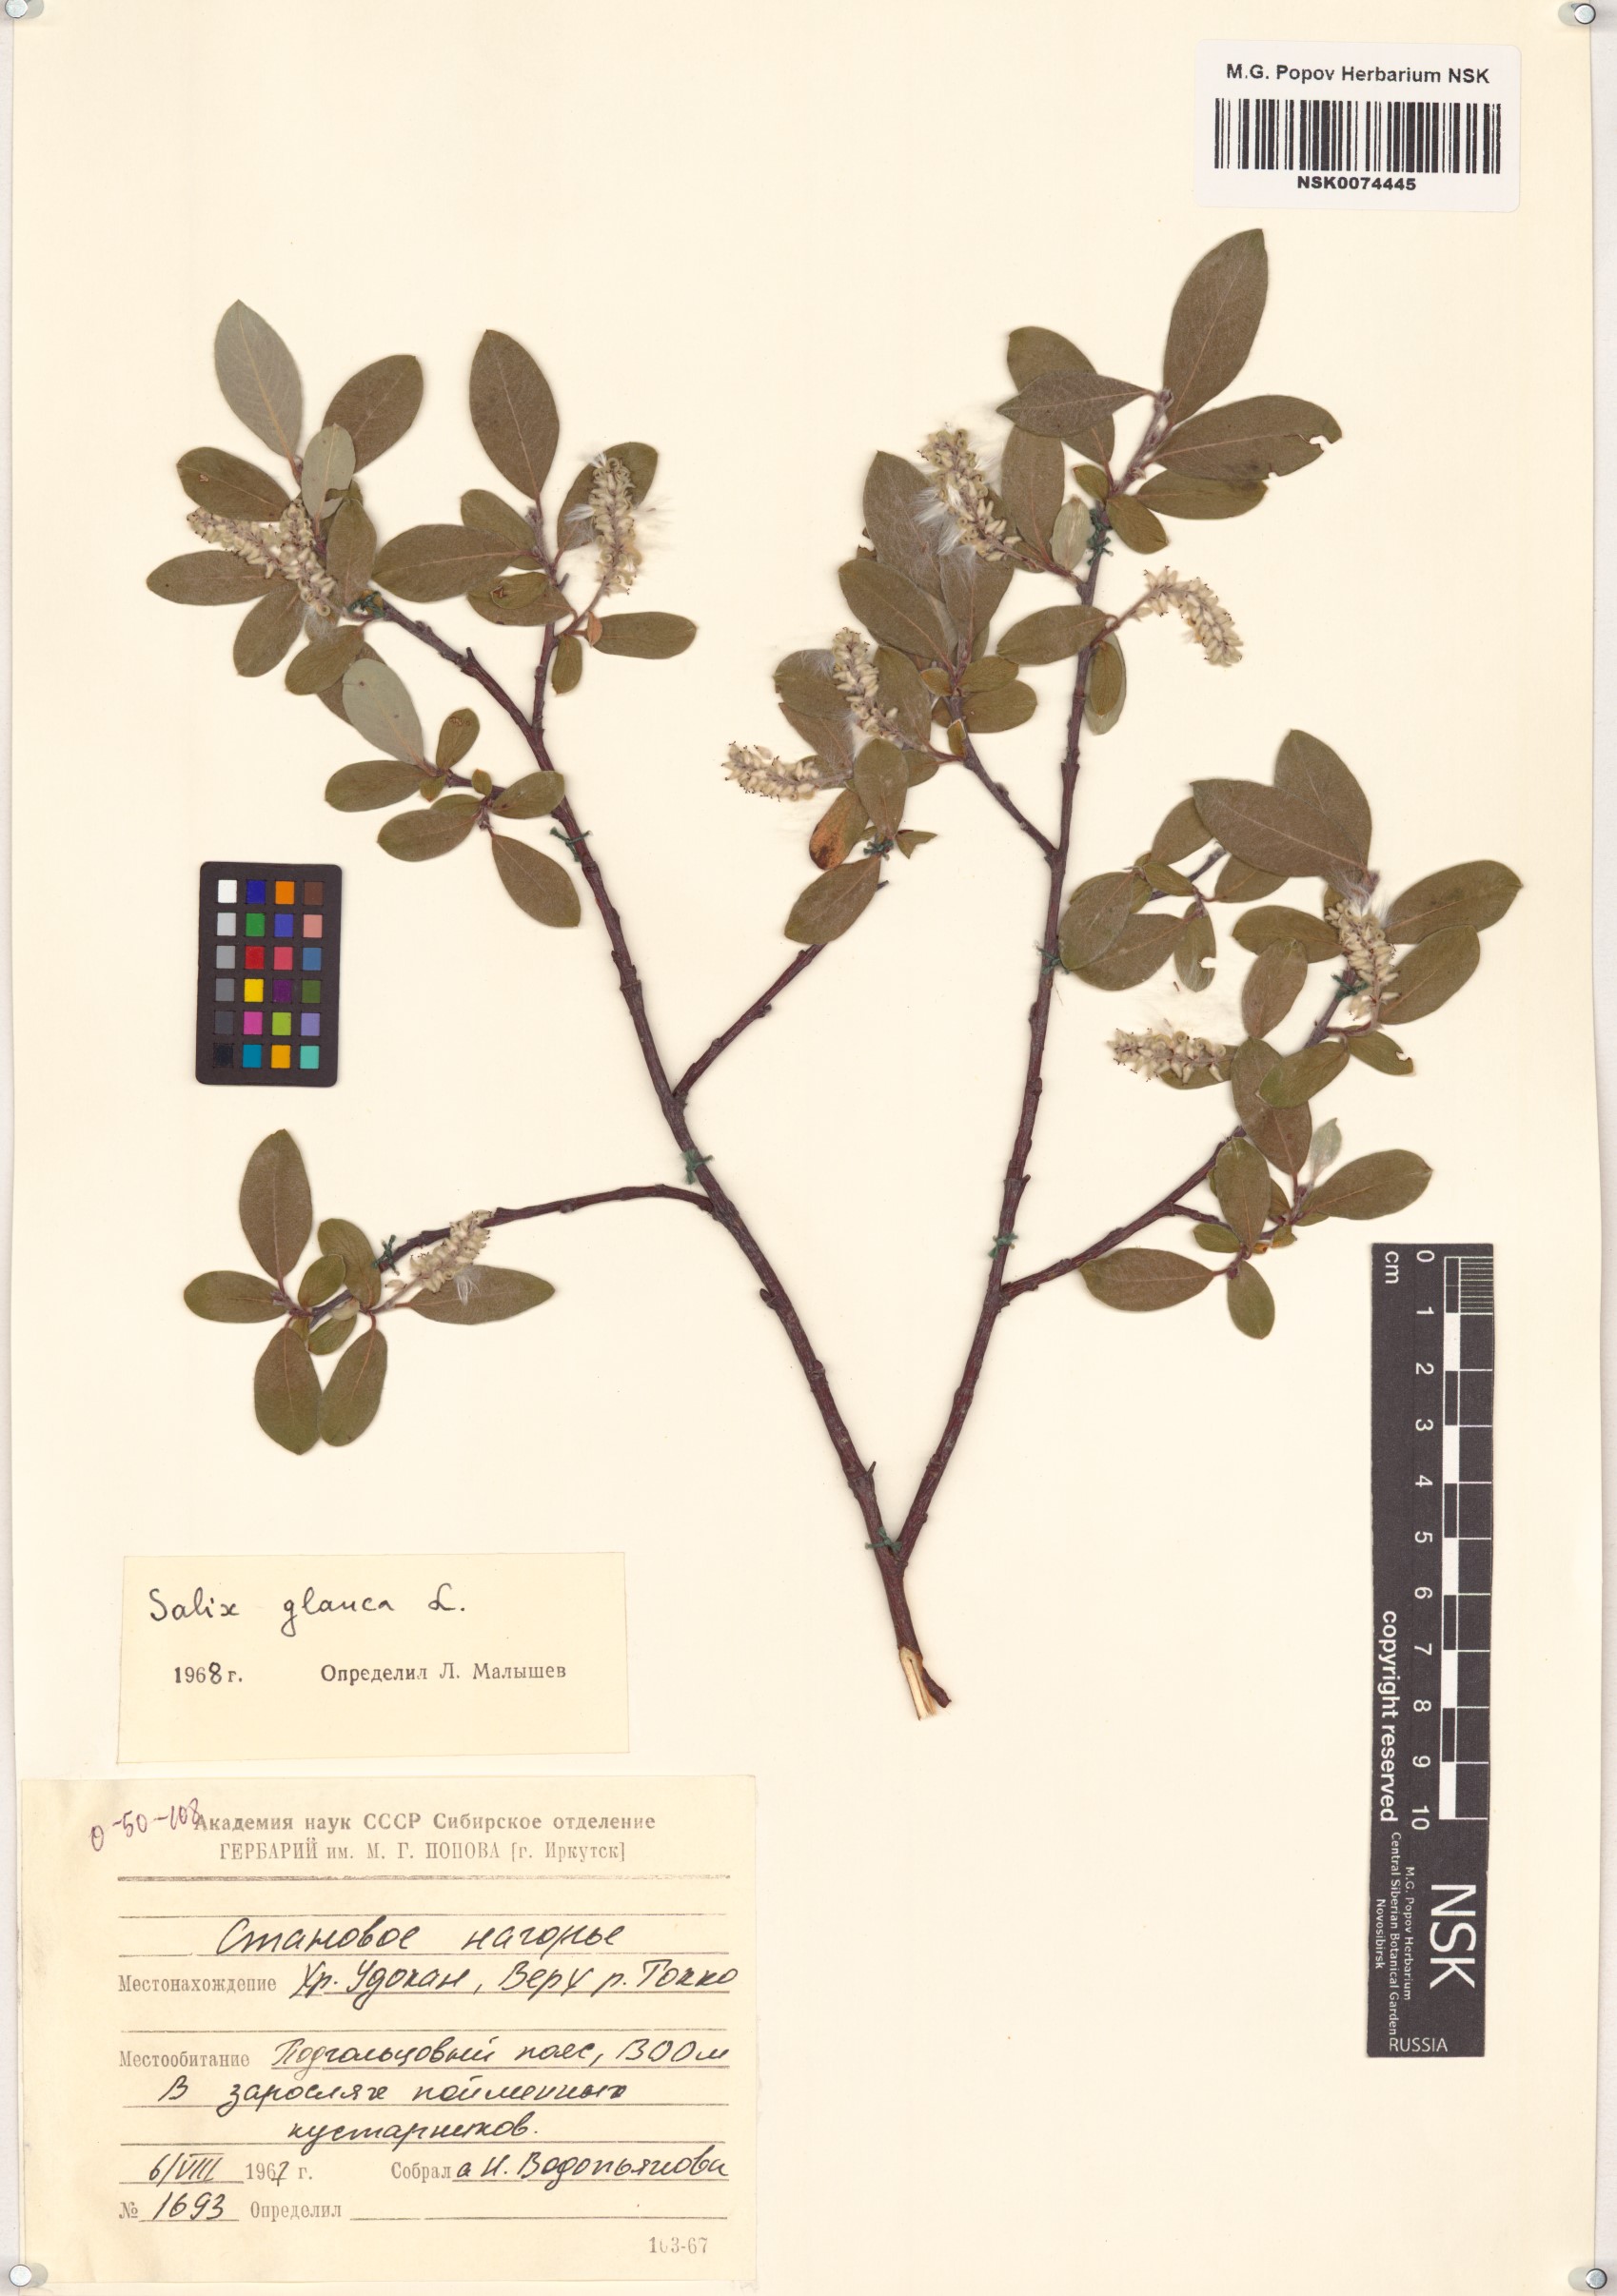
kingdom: Plantae
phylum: Tracheophyta
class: Magnoliopsida
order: Malpighiales
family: Salicaceae
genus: Salix
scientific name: Salix glauca
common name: Glaucous willow
